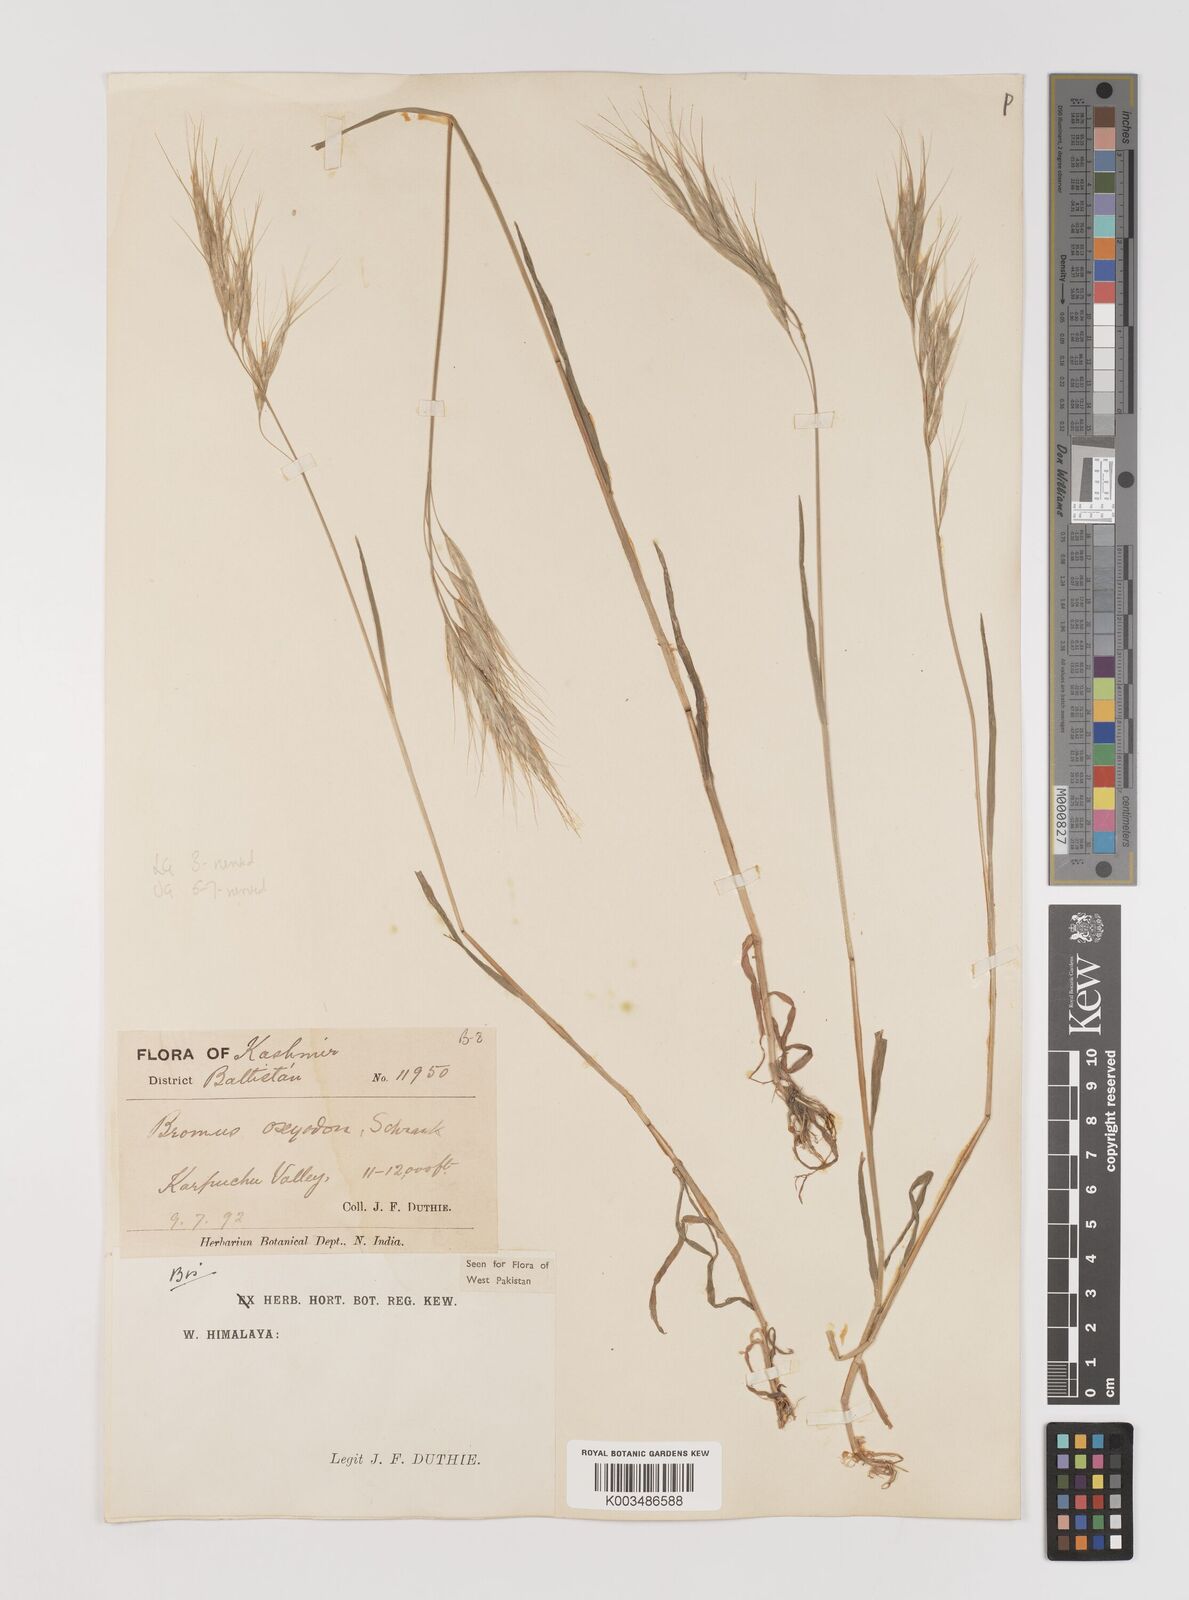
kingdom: Plantae
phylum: Tracheophyta
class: Liliopsida
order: Poales
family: Poaceae
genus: Bromus
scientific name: Bromus oxyodon
